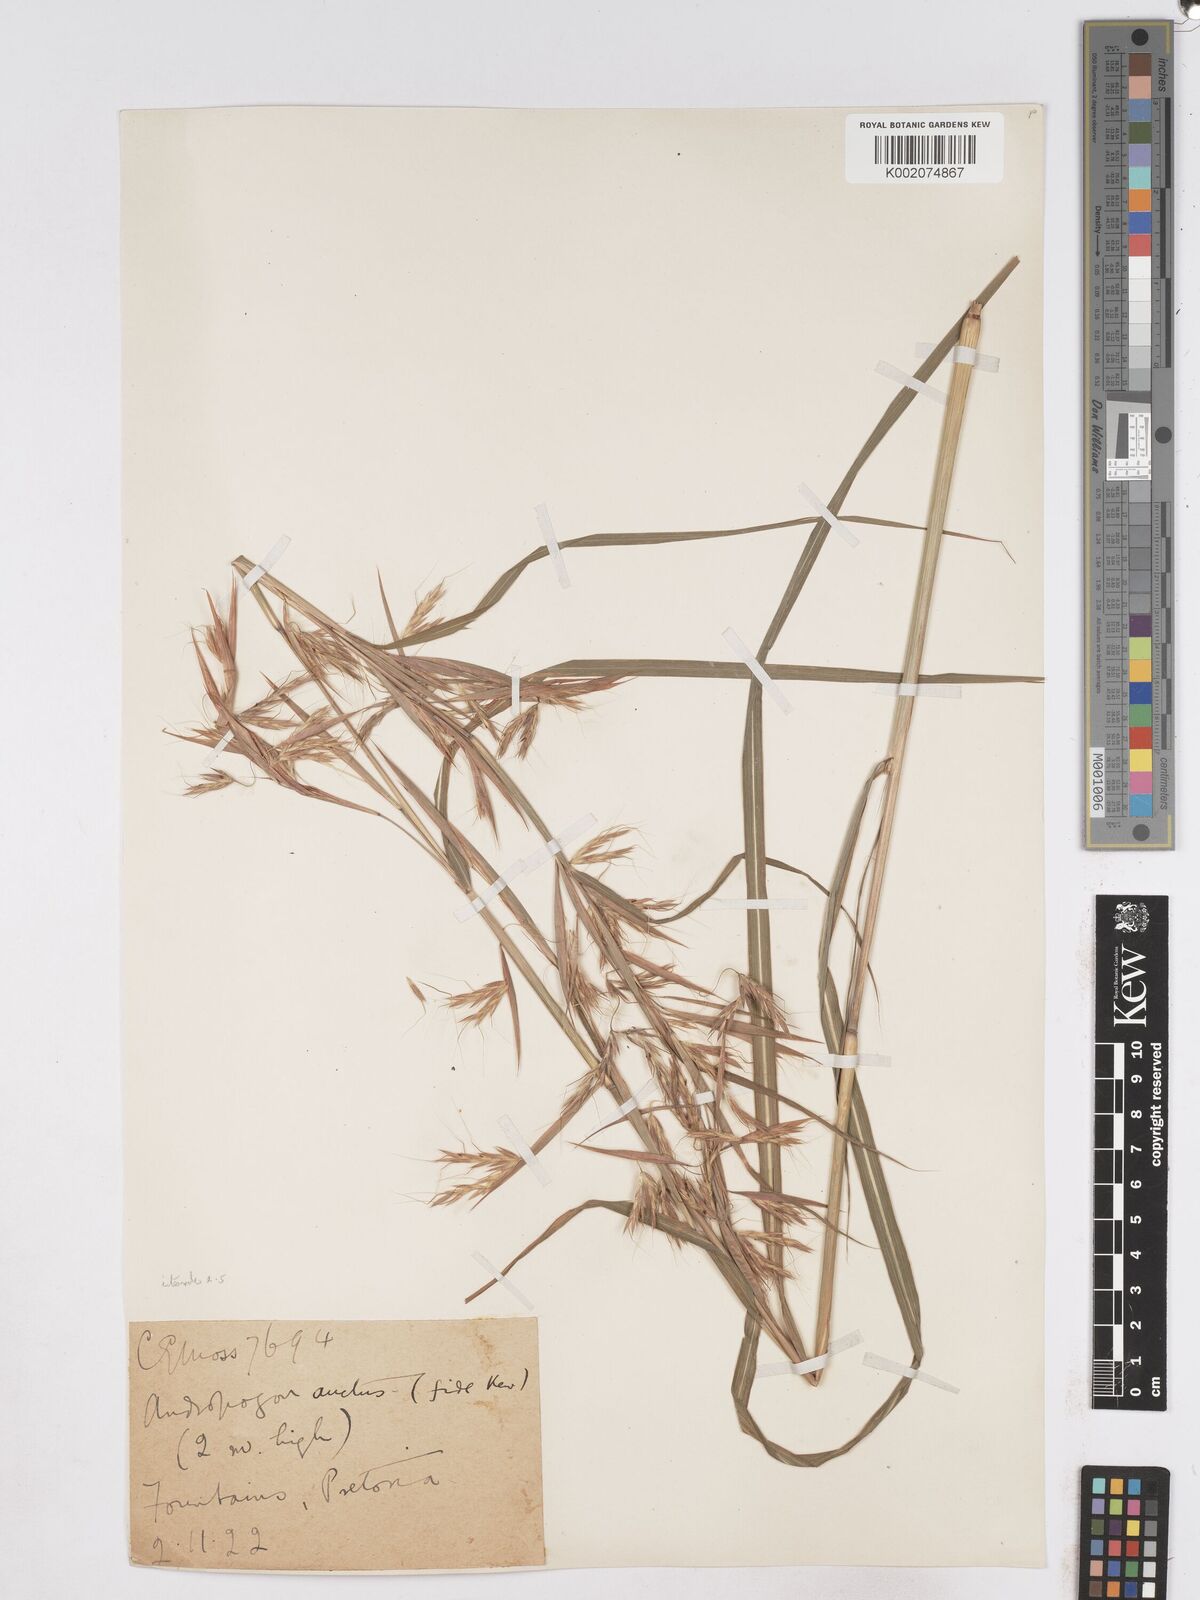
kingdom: Plantae
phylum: Tracheophyta
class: Liliopsida
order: Poales
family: Poaceae
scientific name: Poaceae
